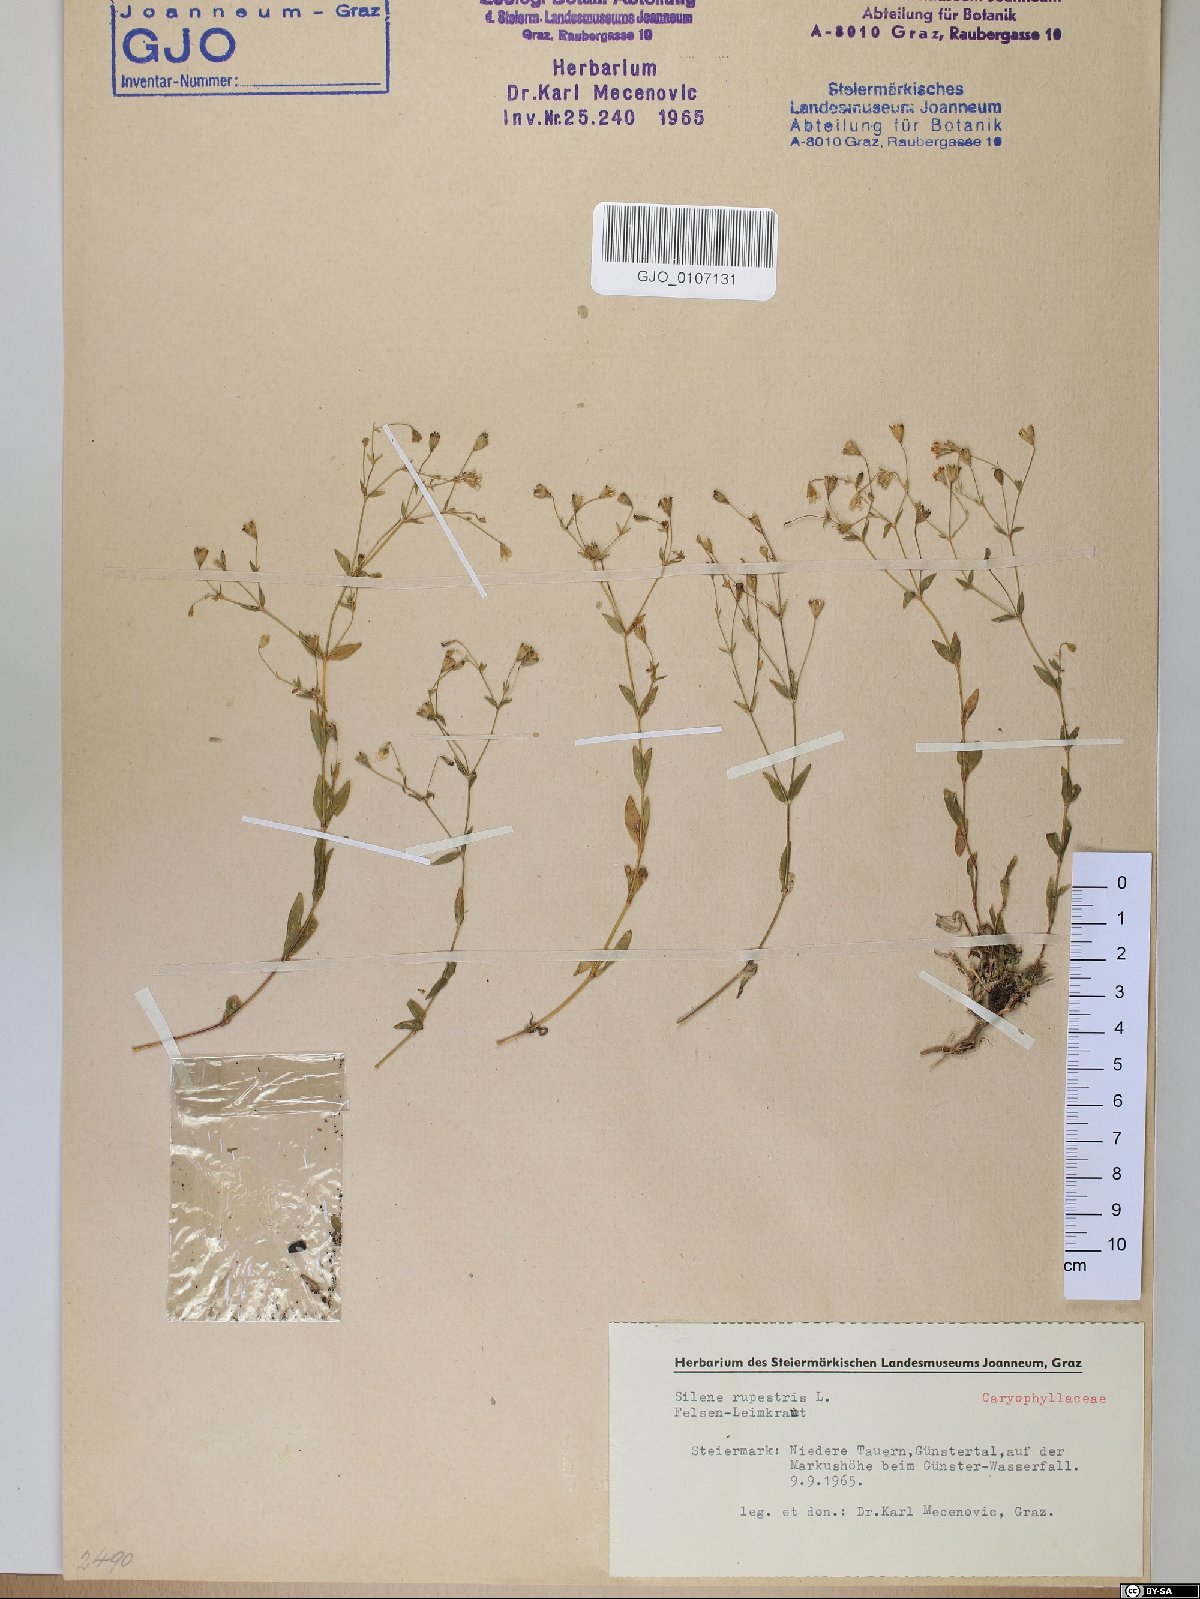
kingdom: Plantae
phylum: Tracheophyta
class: Magnoliopsida
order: Caryophyllales
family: Caryophyllaceae
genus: Atocion
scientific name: Atocion rupestre
